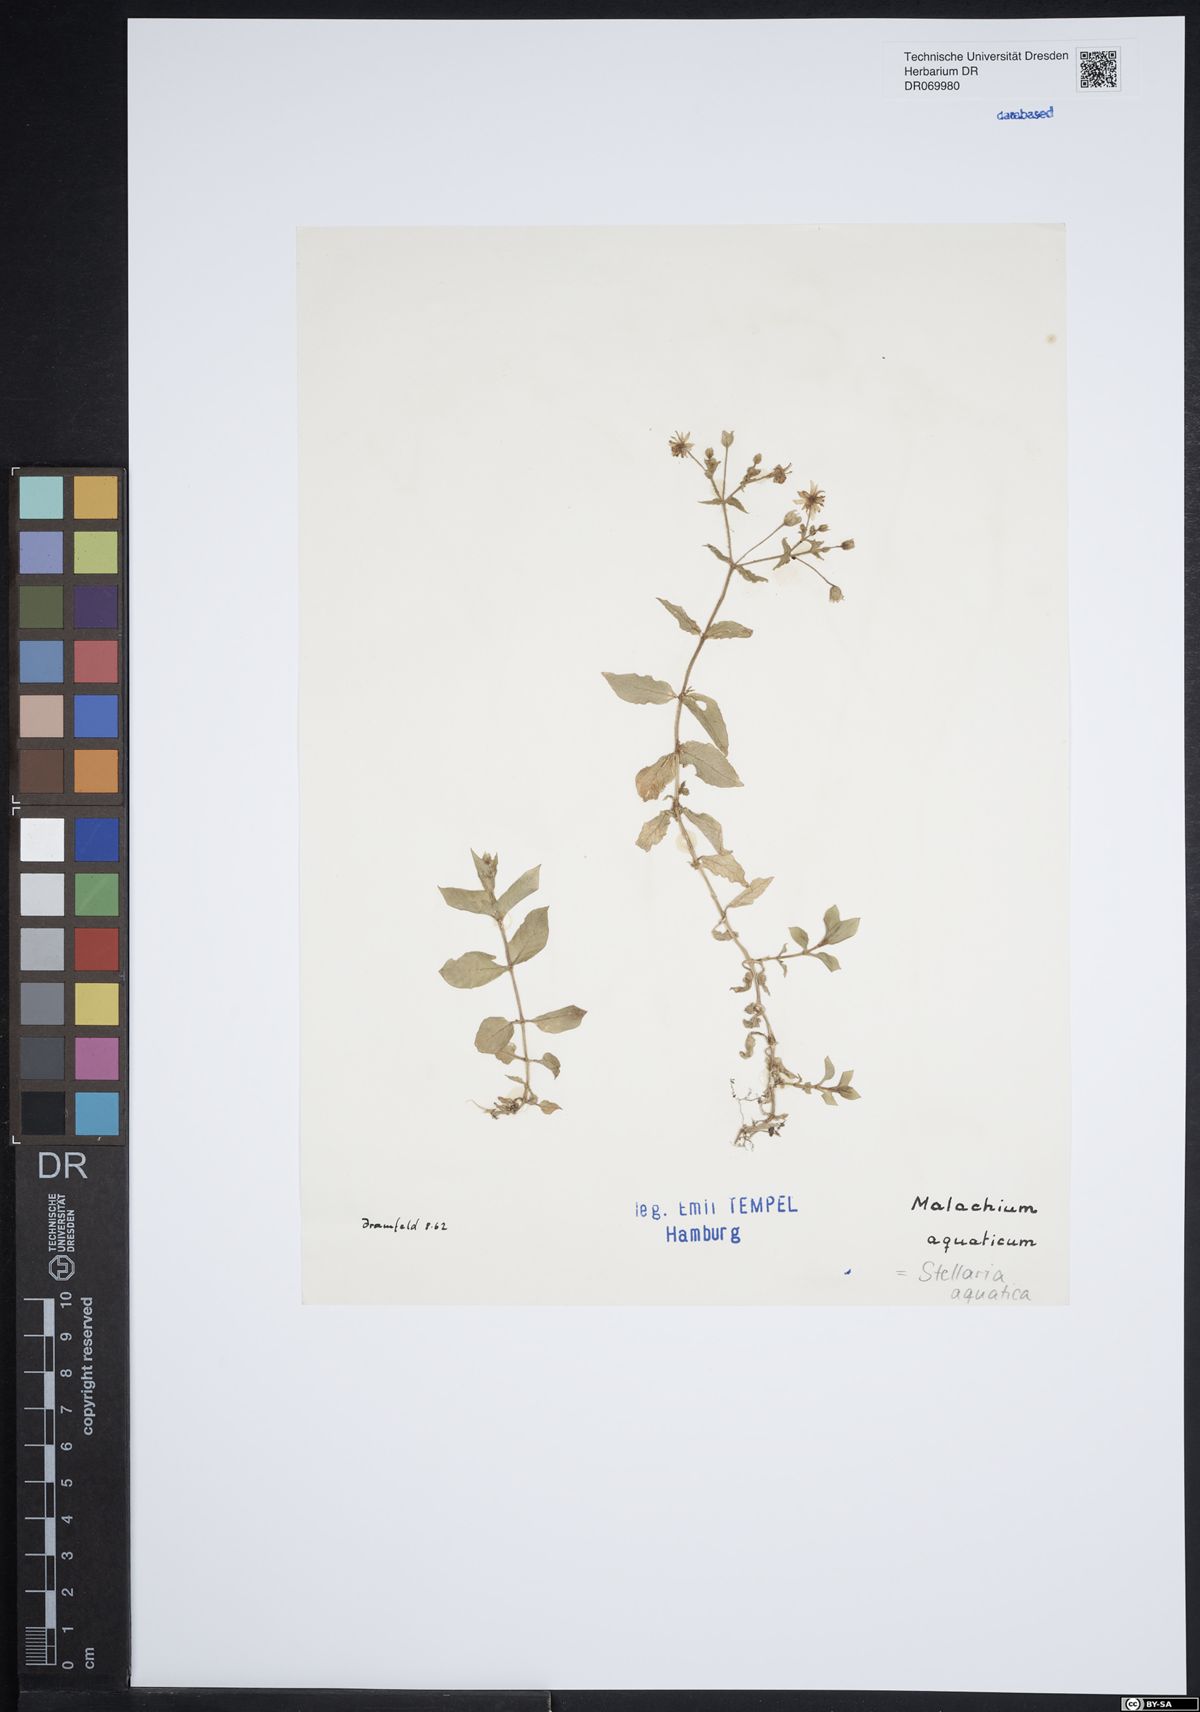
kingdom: Plantae
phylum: Tracheophyta
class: Magnoliopsida
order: Caryophyllales
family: Caryophyllaceae
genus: Stellaria
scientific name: Stellaria aquatica
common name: Water chickweed
